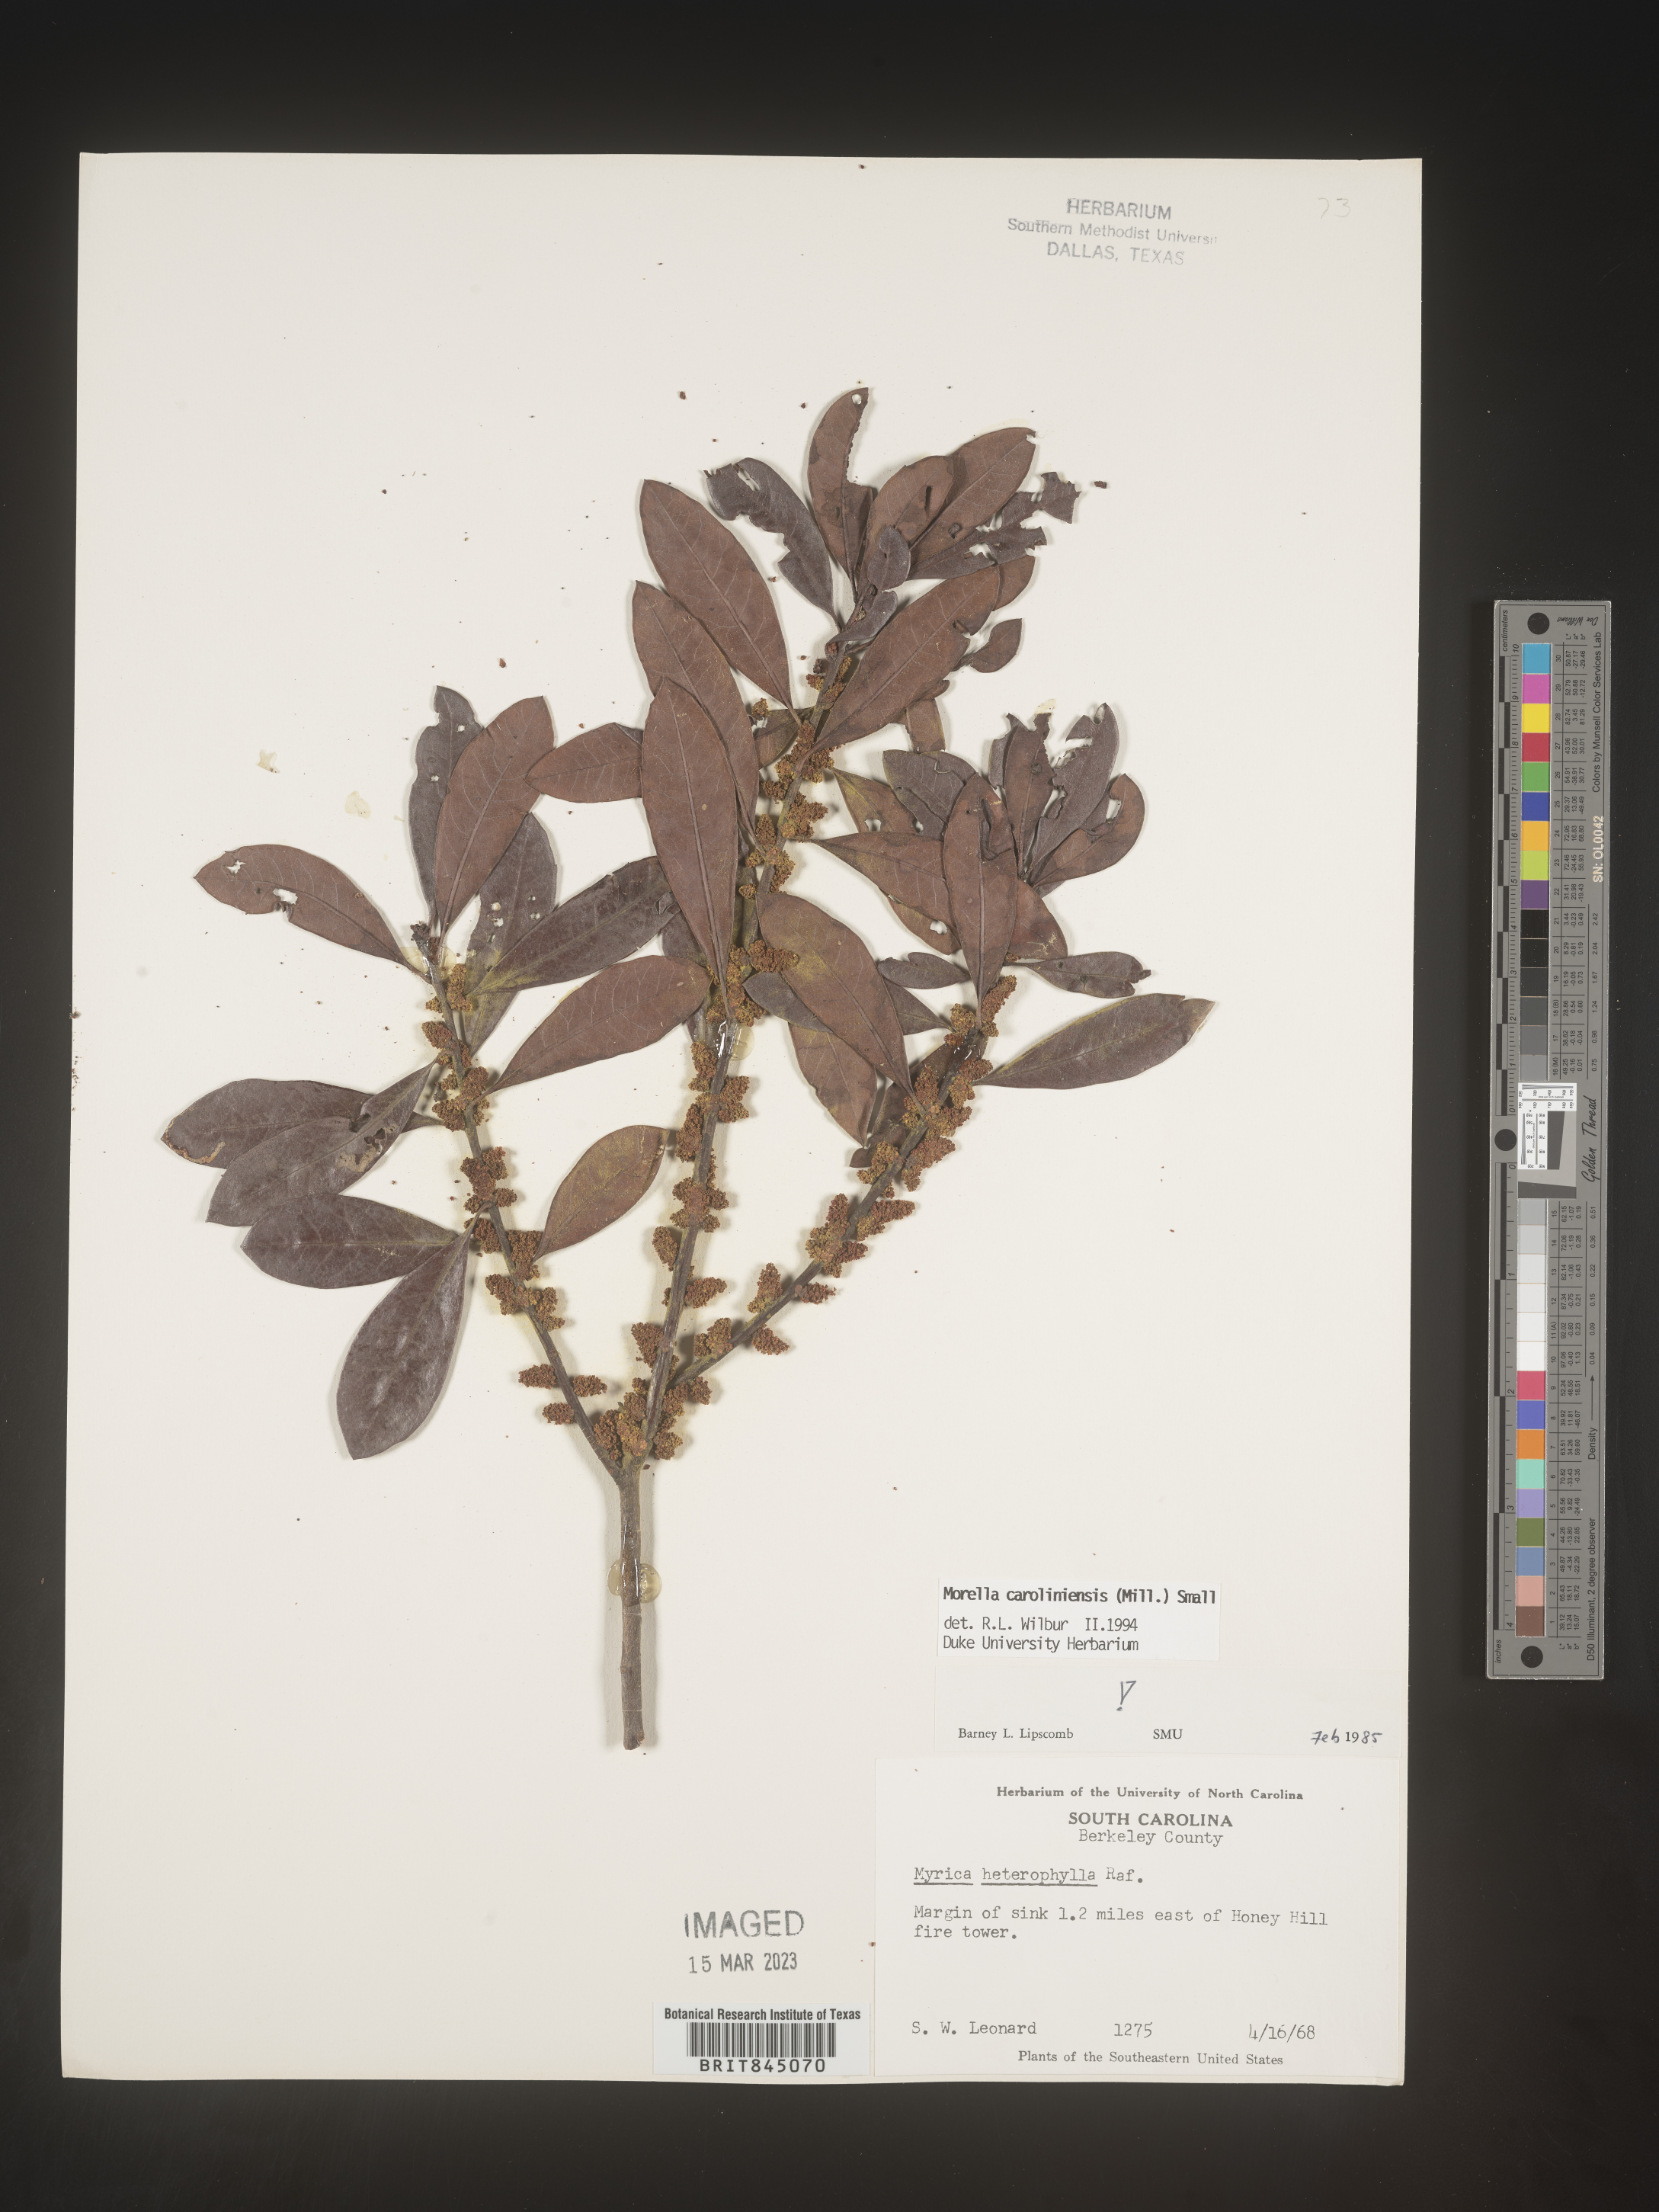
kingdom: Plantae
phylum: Tracheophyta
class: Magnoliopsida
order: Fagales
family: Myricaceae
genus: Morella
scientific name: Morella caroliniensis
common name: Evergreen bayberry
